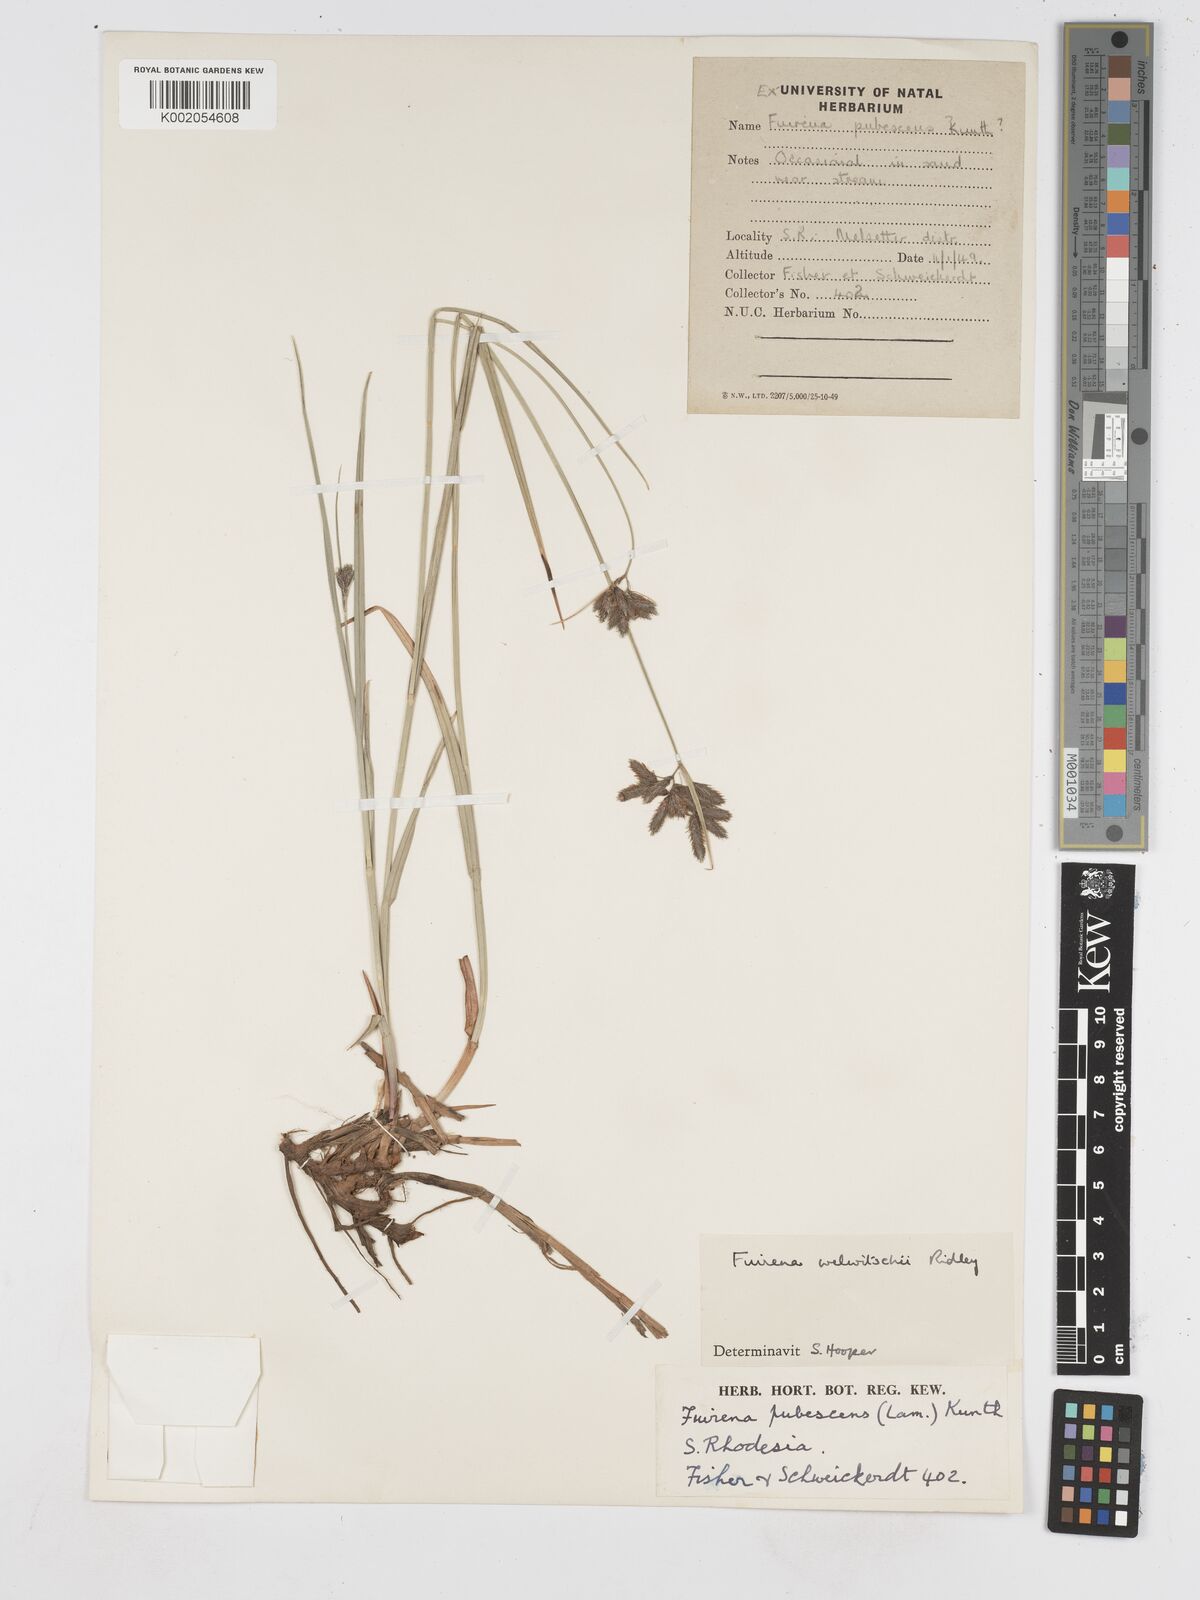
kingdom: Plantae
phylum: Tracheophyta
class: Liliopsida
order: Poales
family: Cyperaceae
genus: Fuirena
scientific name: Fuirena welwitschii
